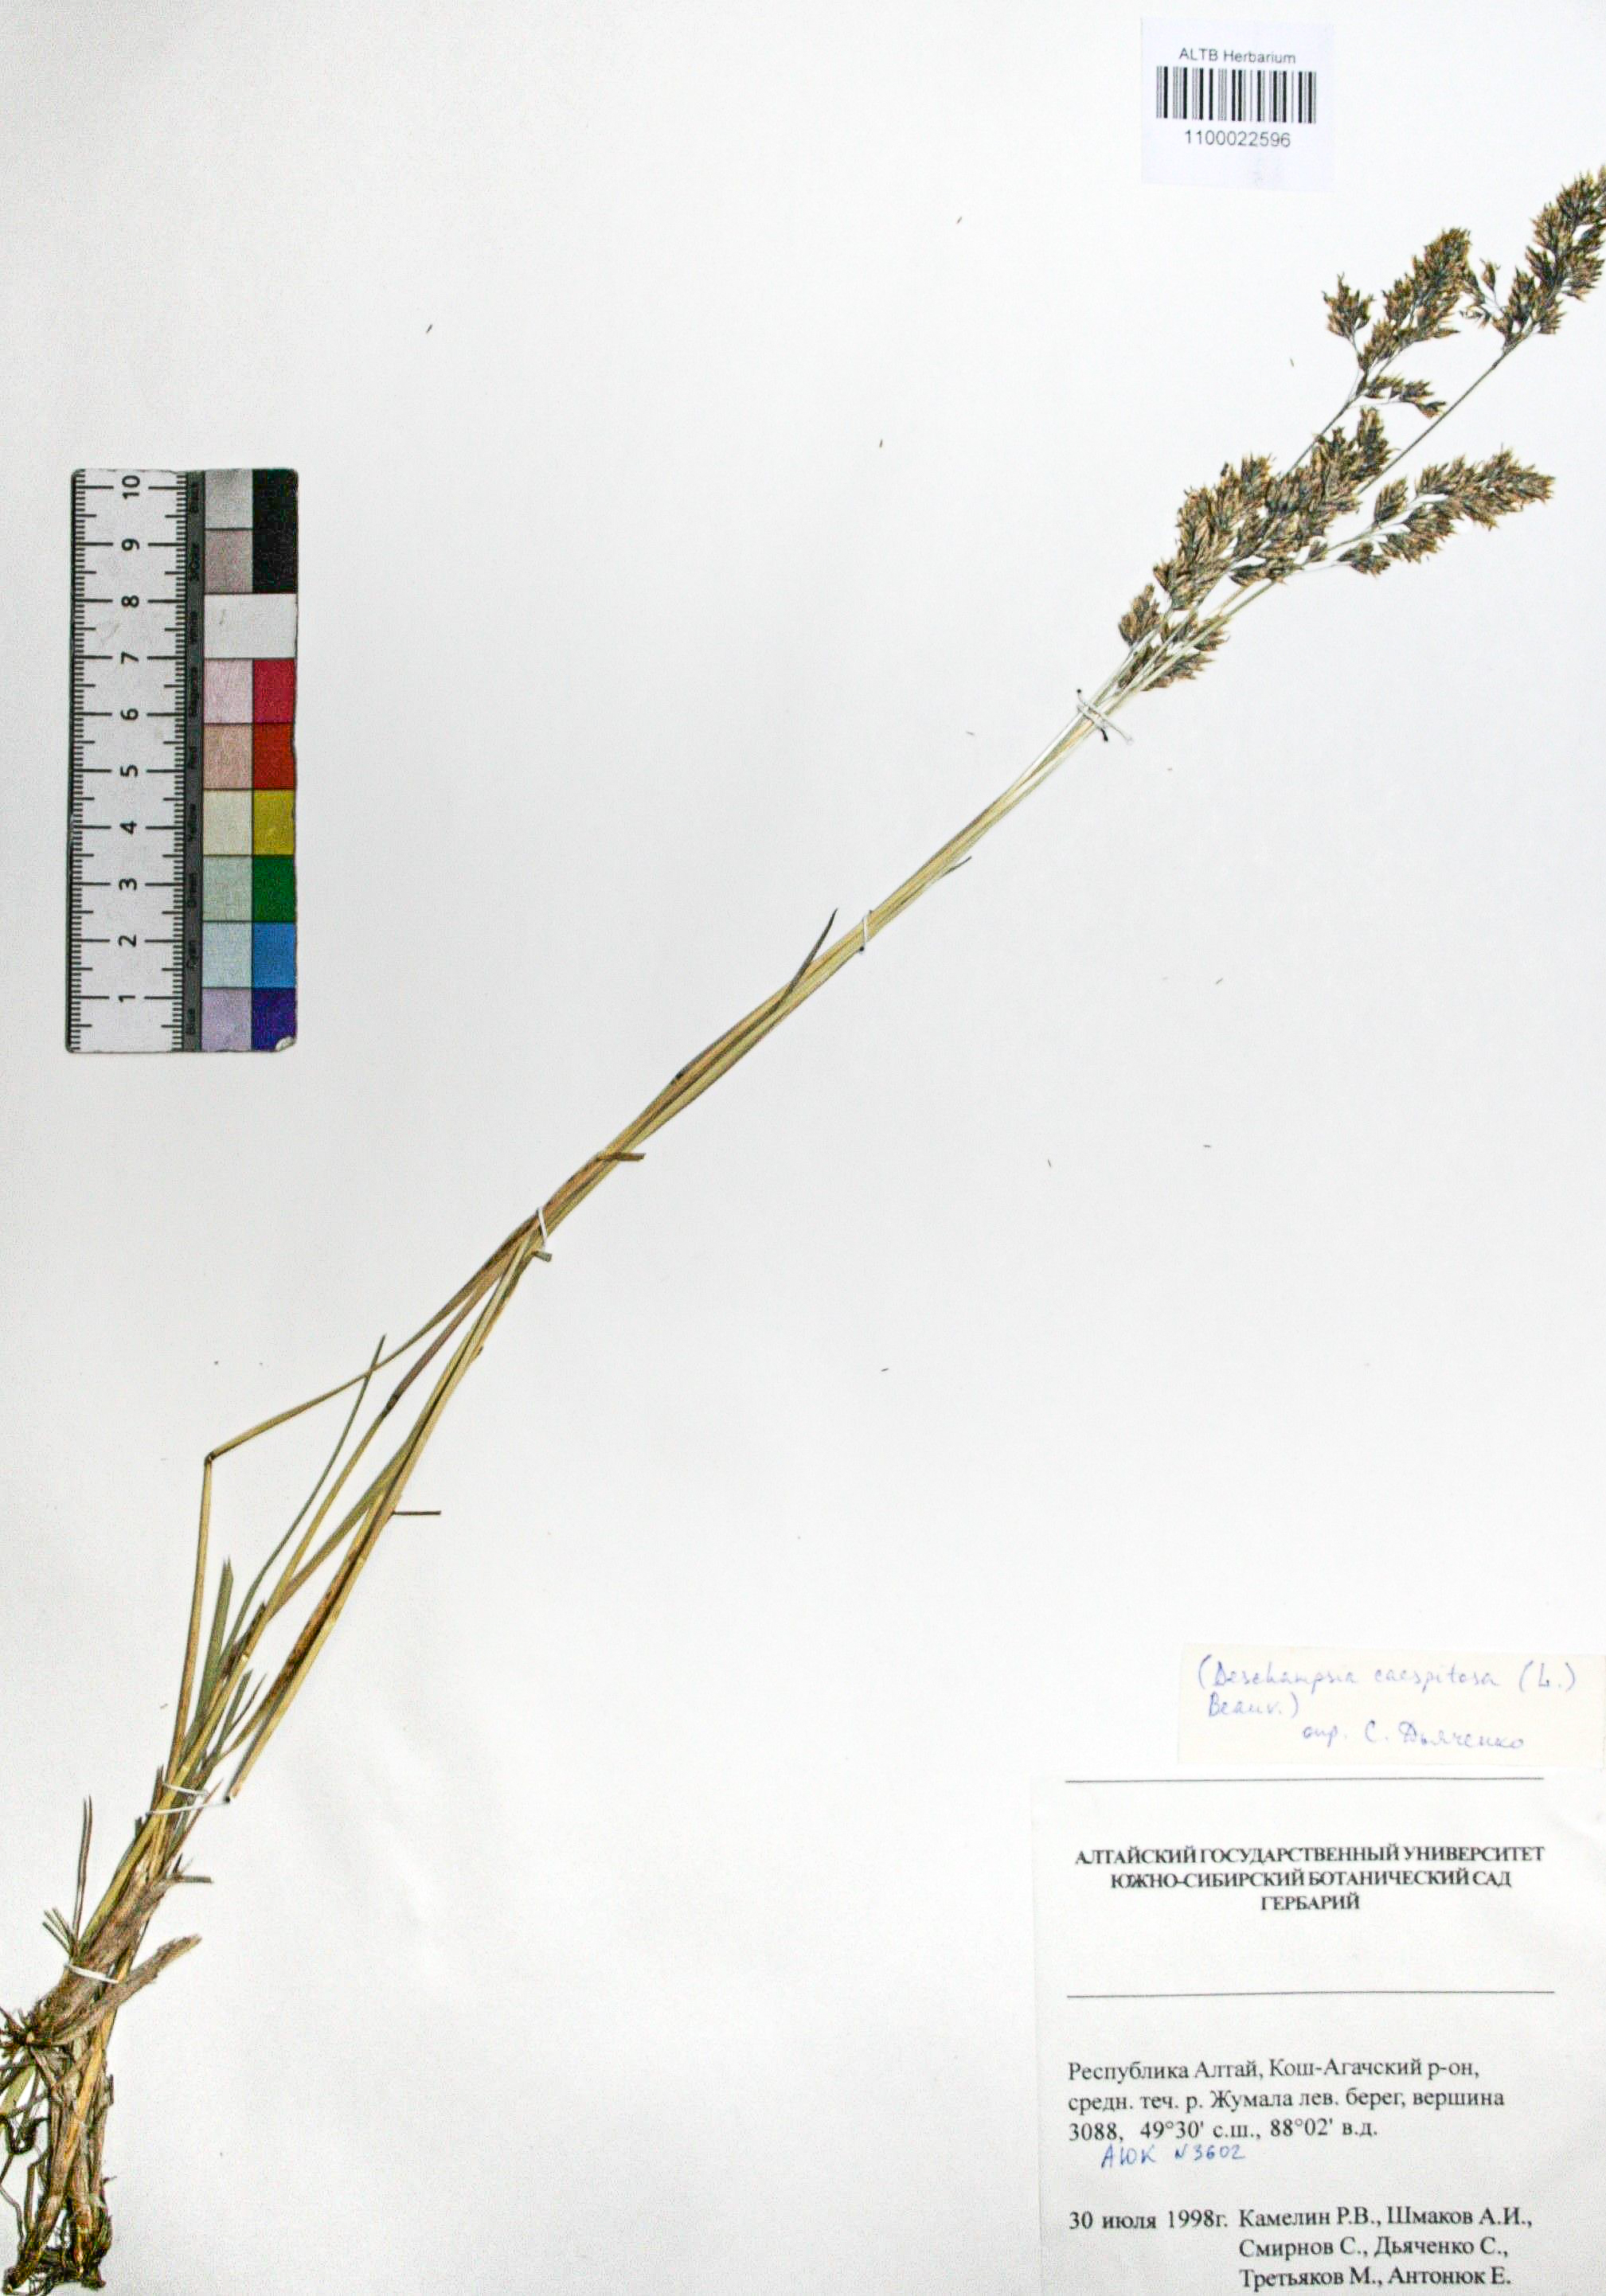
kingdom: Plantae
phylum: Tracheophyta
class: Liliopsida
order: Poales
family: Poaceae
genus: Deschampsia
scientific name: Deschampsia cespitosa
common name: Tufted hair-grass
